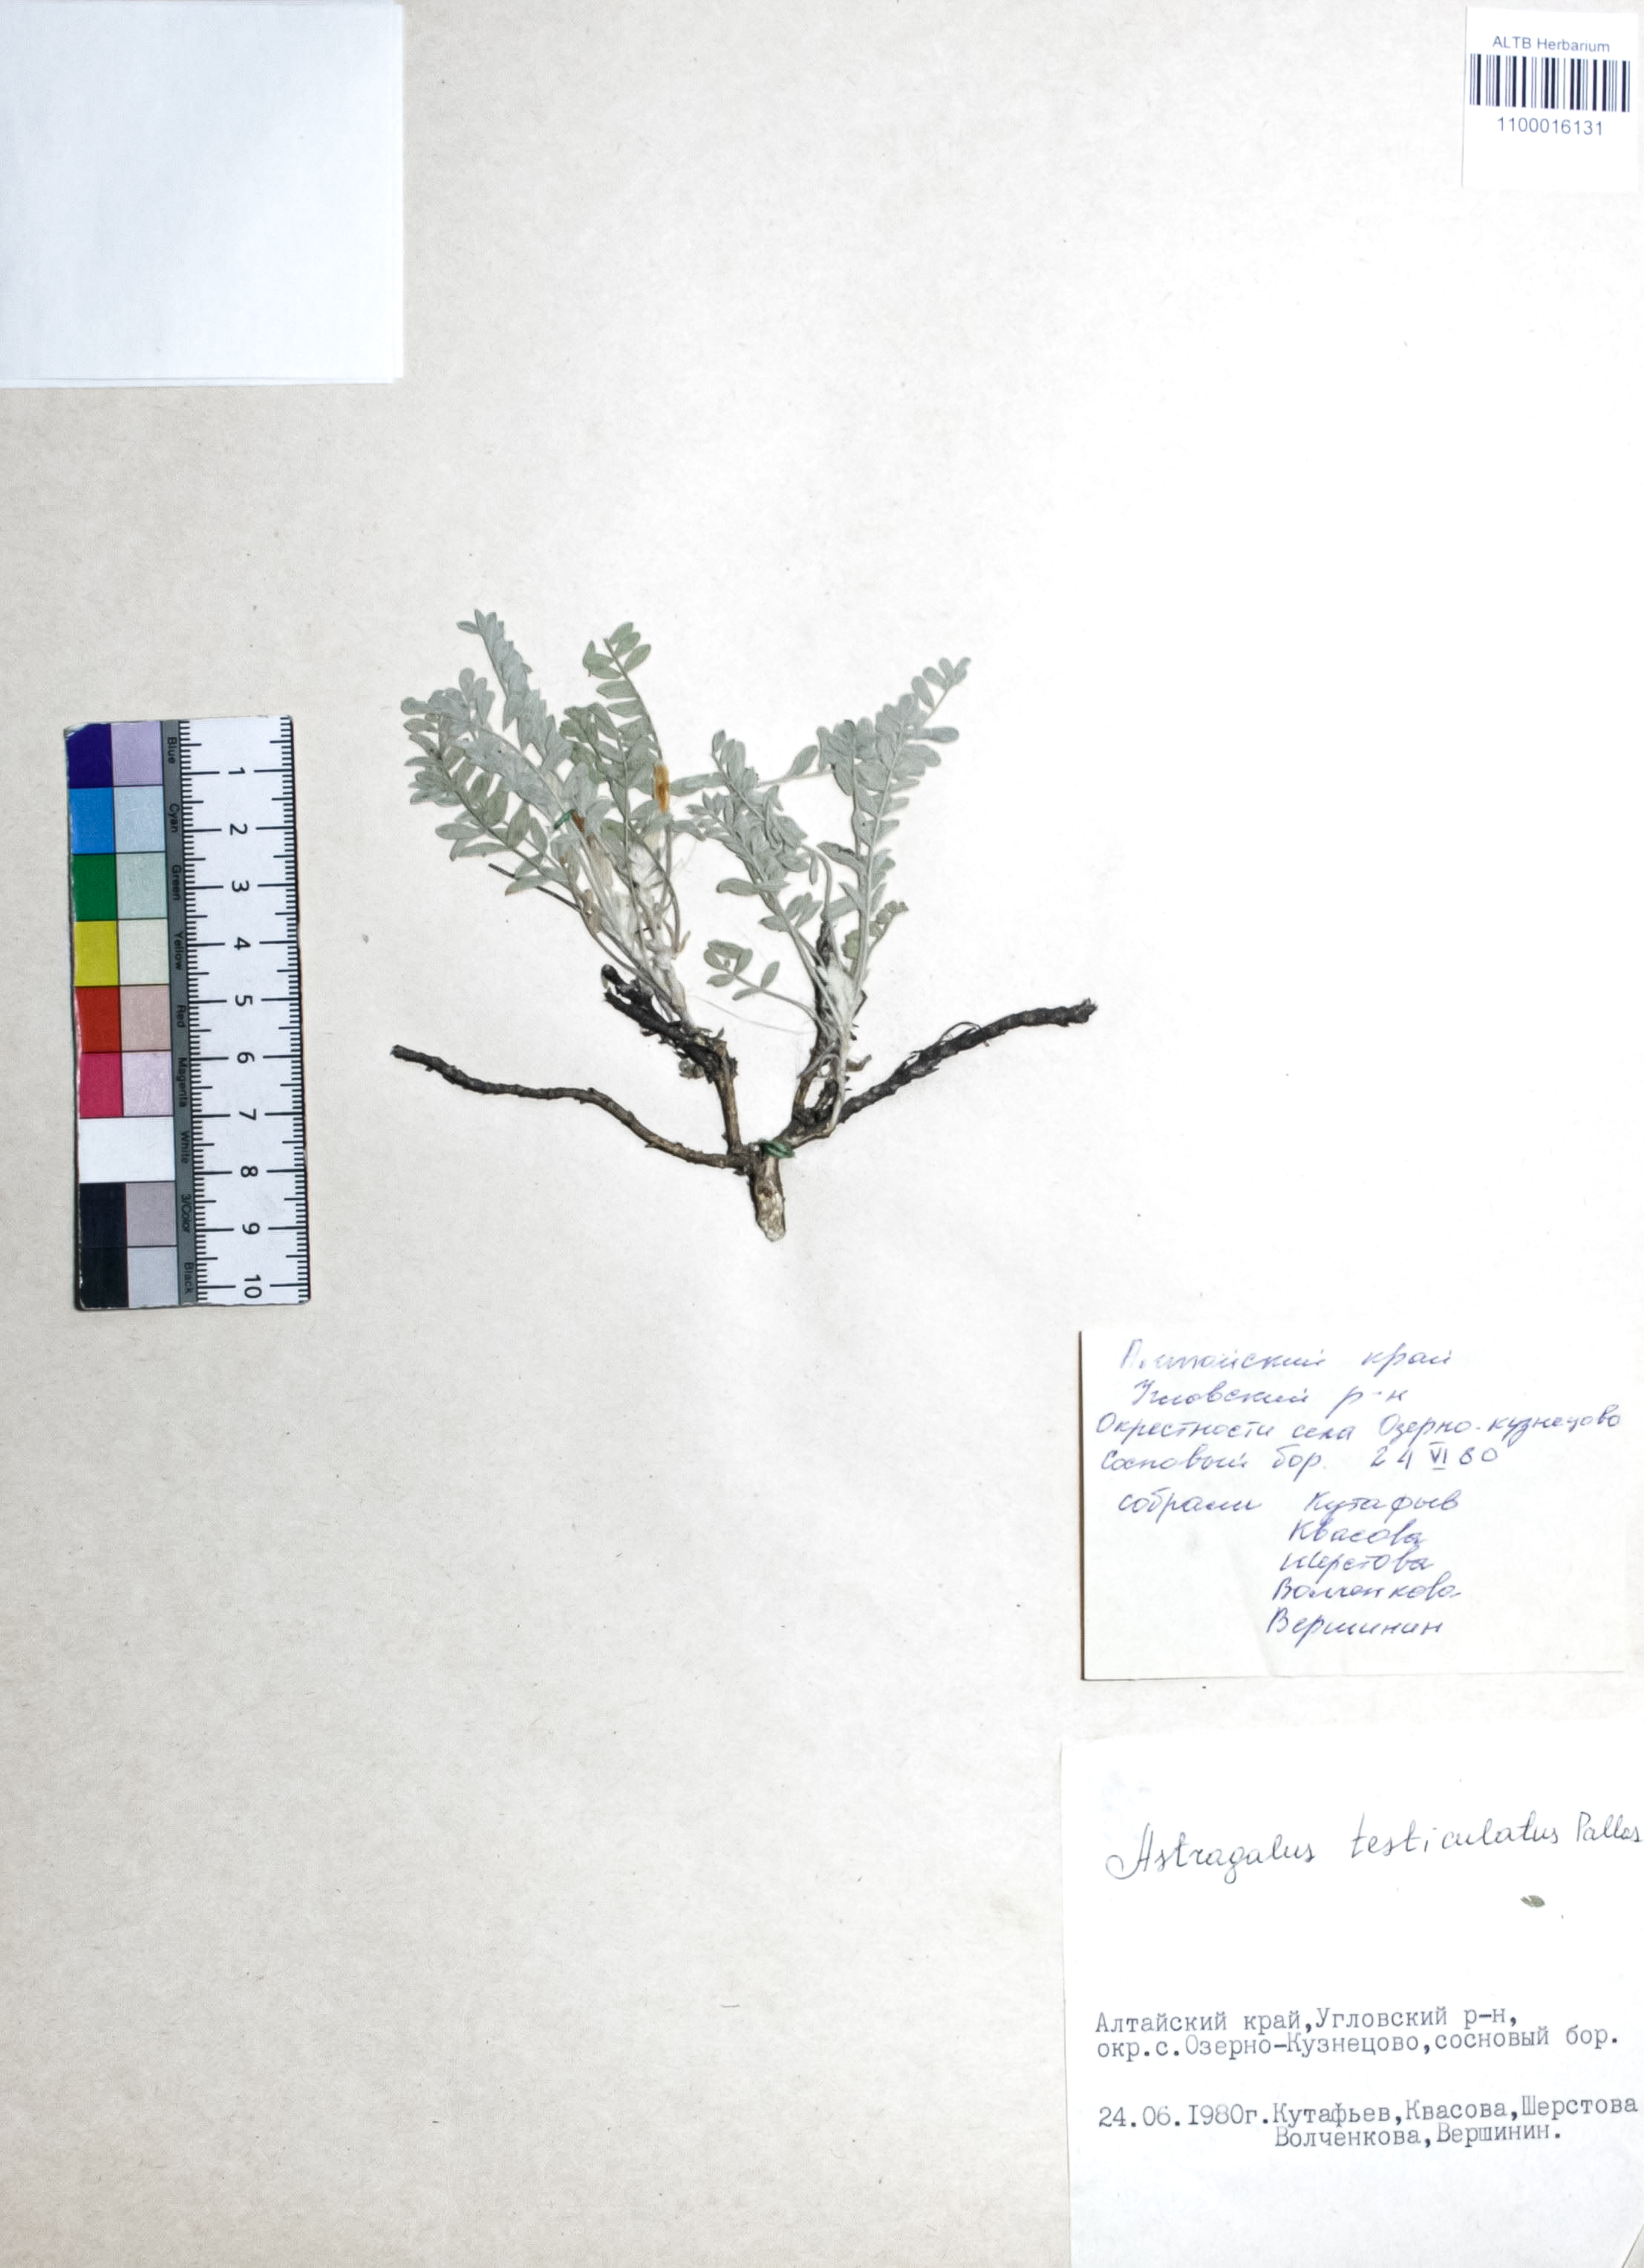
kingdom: Plantae
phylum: Tracheophyta
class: Magnoliopsida
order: Fabales
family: Fabaceae
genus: Astragalus
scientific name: Astragalus testiculatus
